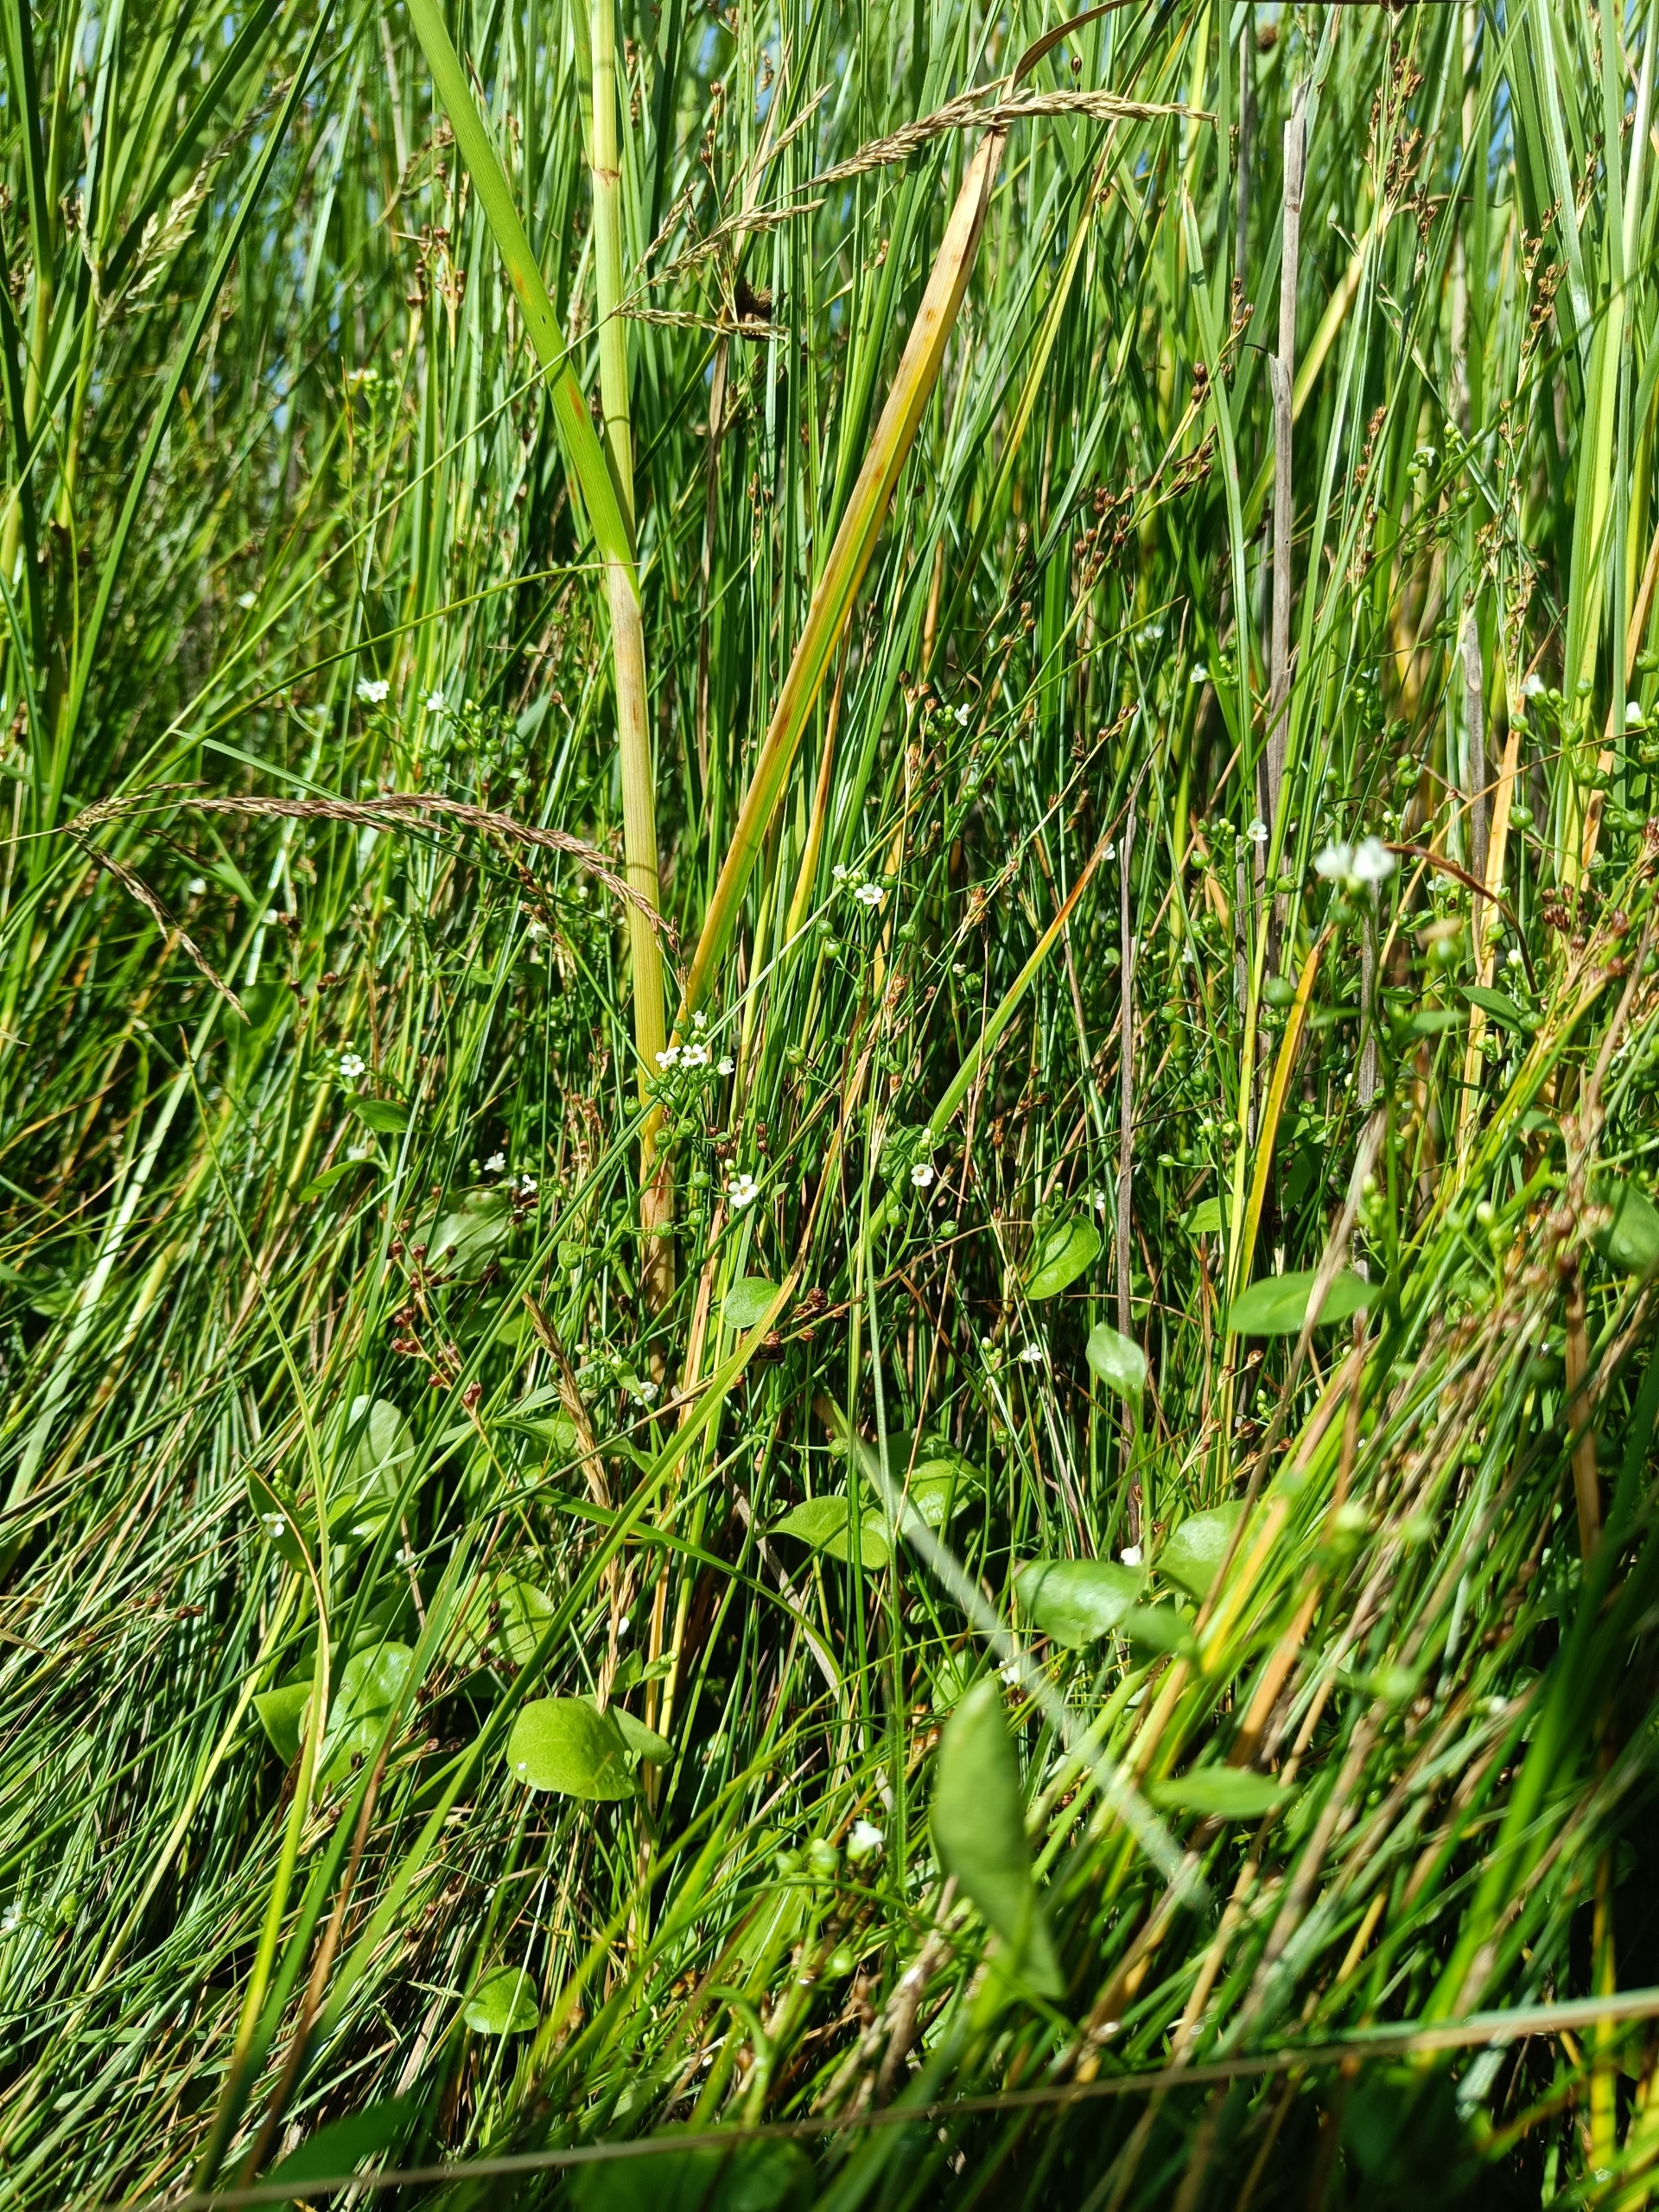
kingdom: Plantae
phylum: Tracheophyta
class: Magnoliopsida
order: Ericales
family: Primulaceae
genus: Samolus
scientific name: Samolus valerandi
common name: Samel
